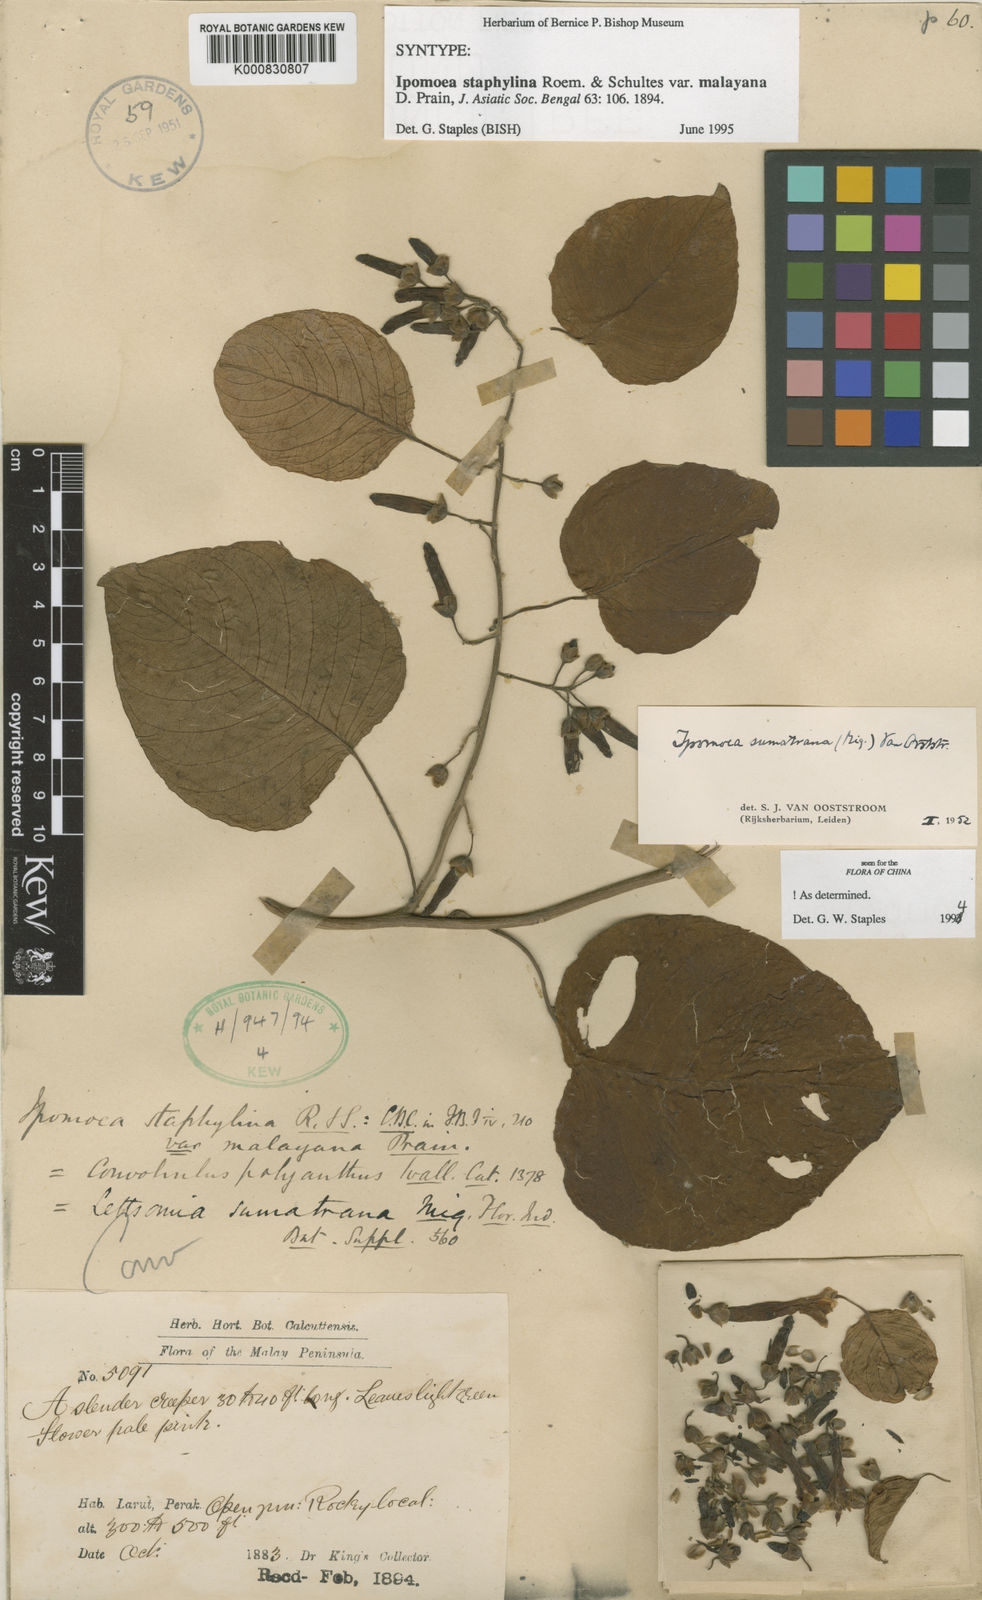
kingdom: Plantae
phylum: Tracheophyta
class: Magnoliopsida
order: Solanales
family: Convolvulaceae
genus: Ipomoea
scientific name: Ipomoea staphylina
